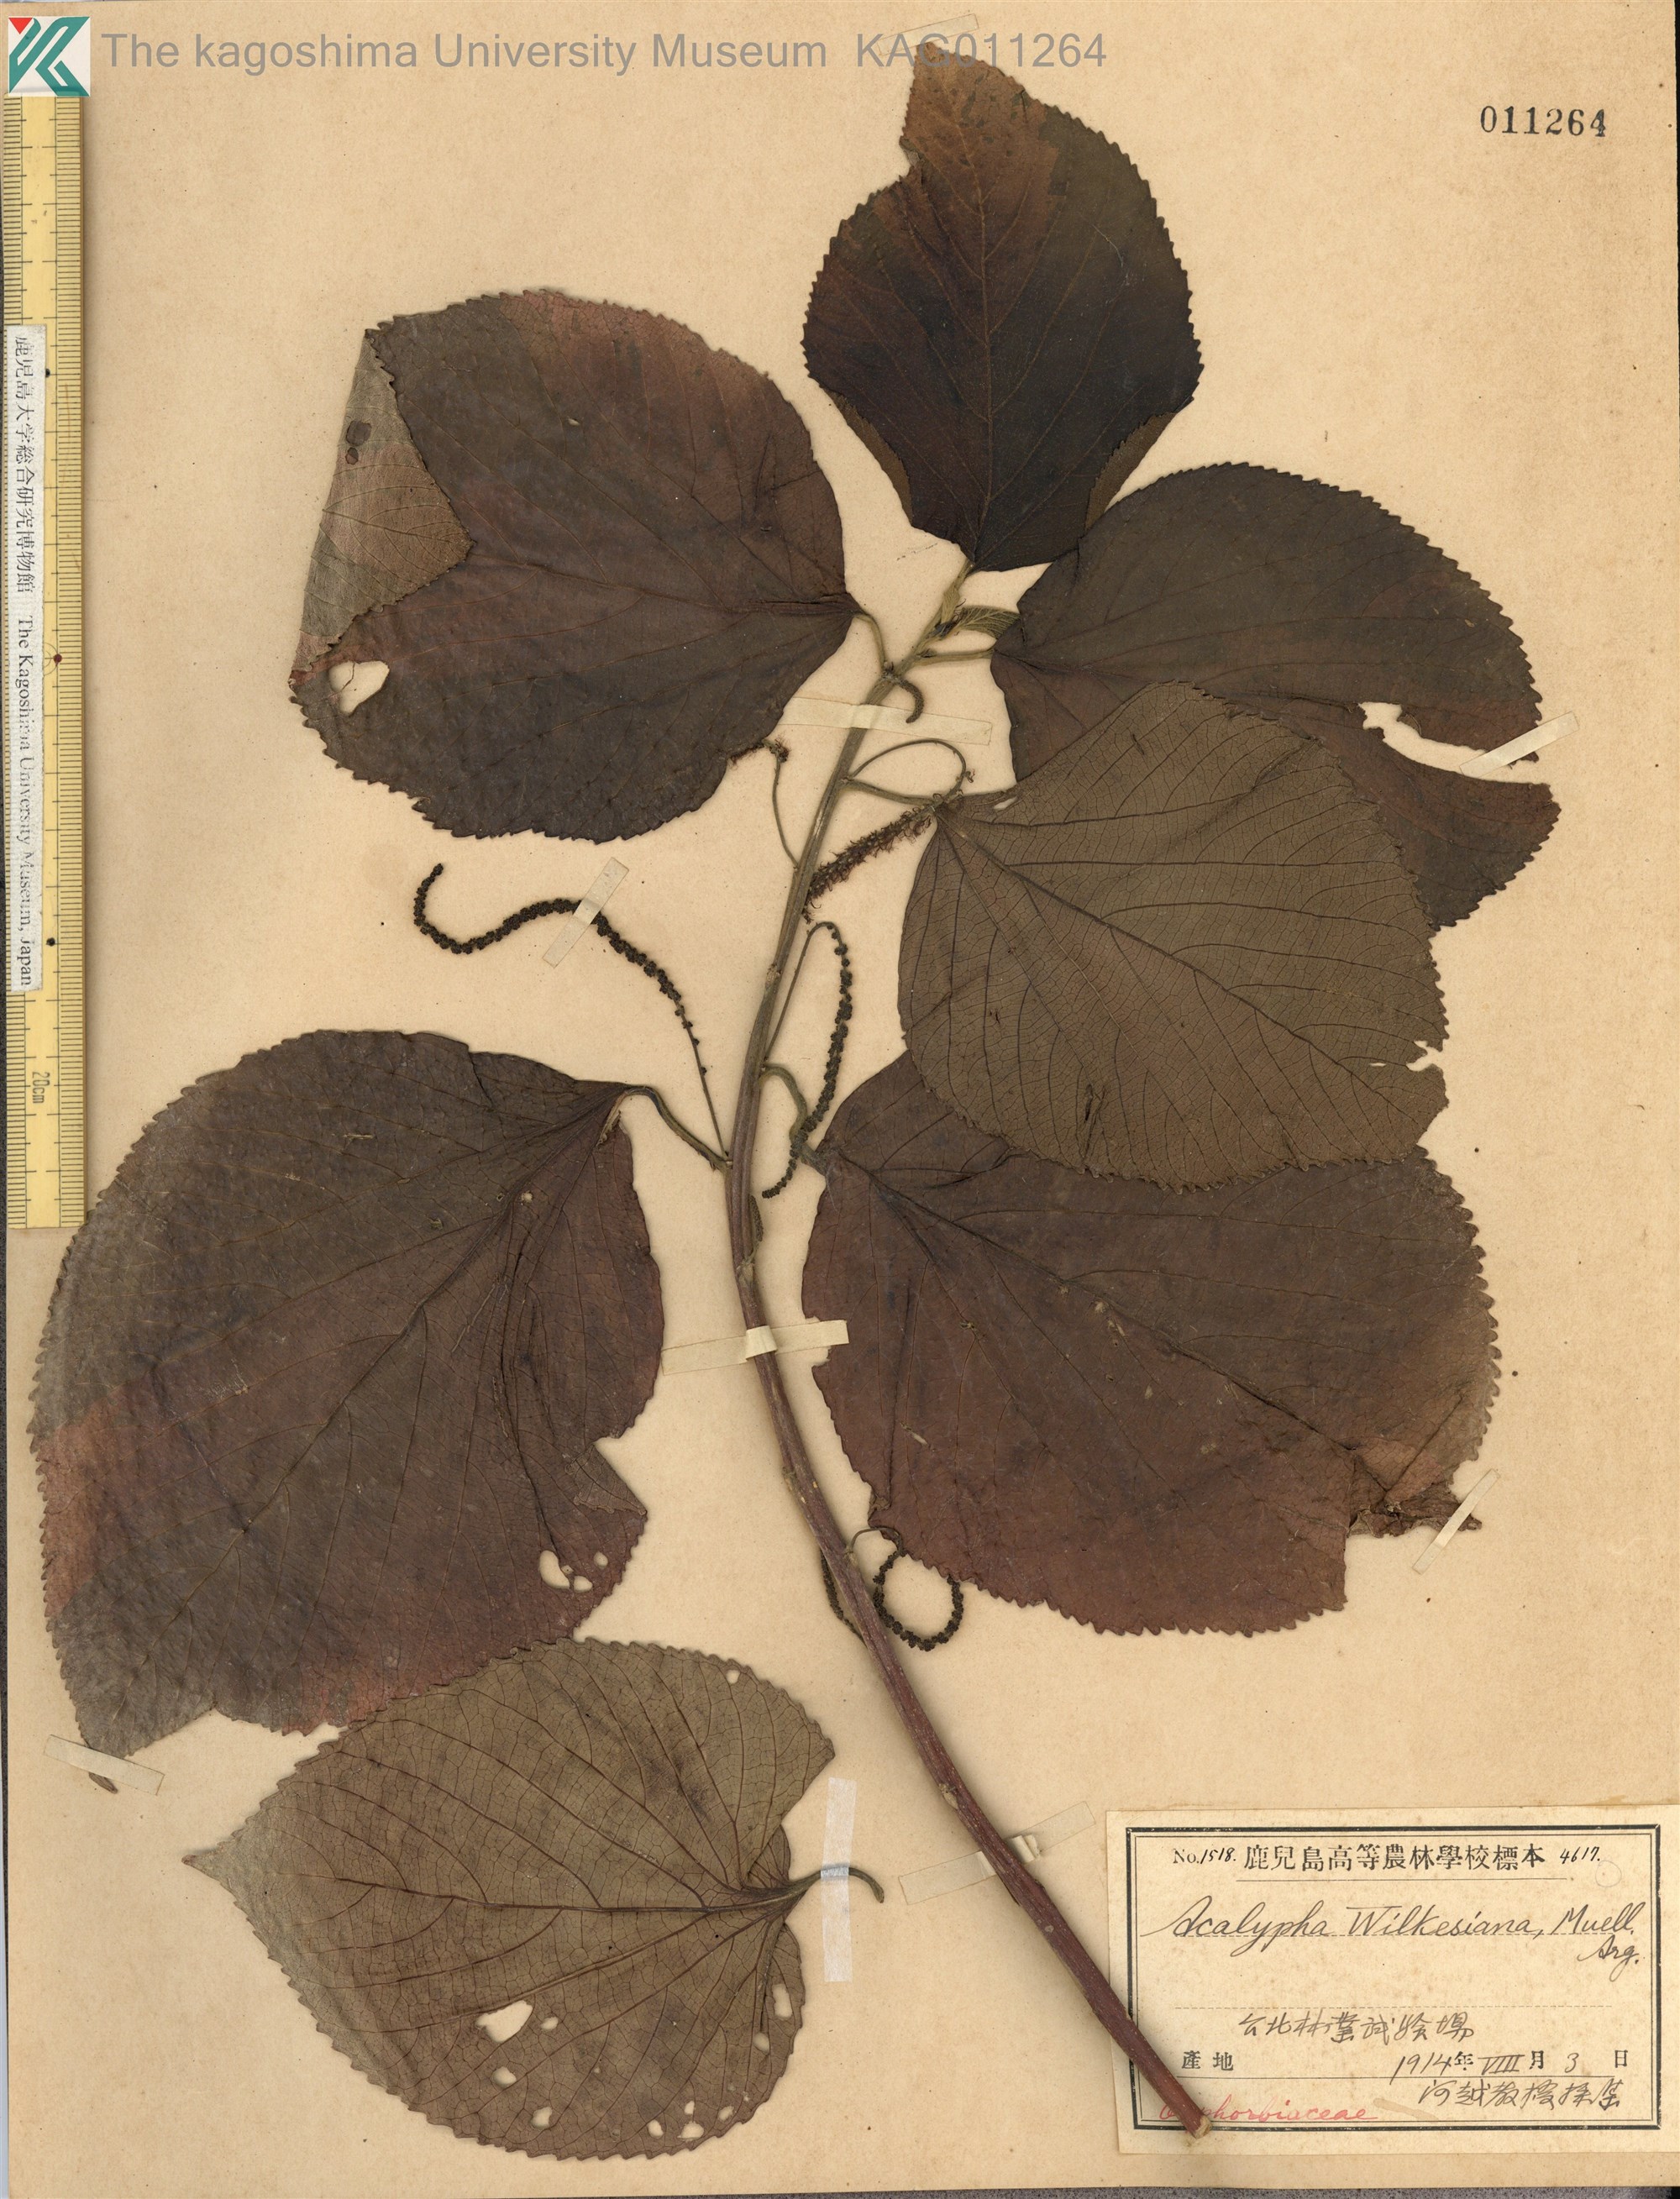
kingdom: Plantae
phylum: Tracheophyta
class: Magnoliopsida
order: Malpighiales
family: Euphorbiaceae
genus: Acalypha
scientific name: Acalypha wilkesiana
